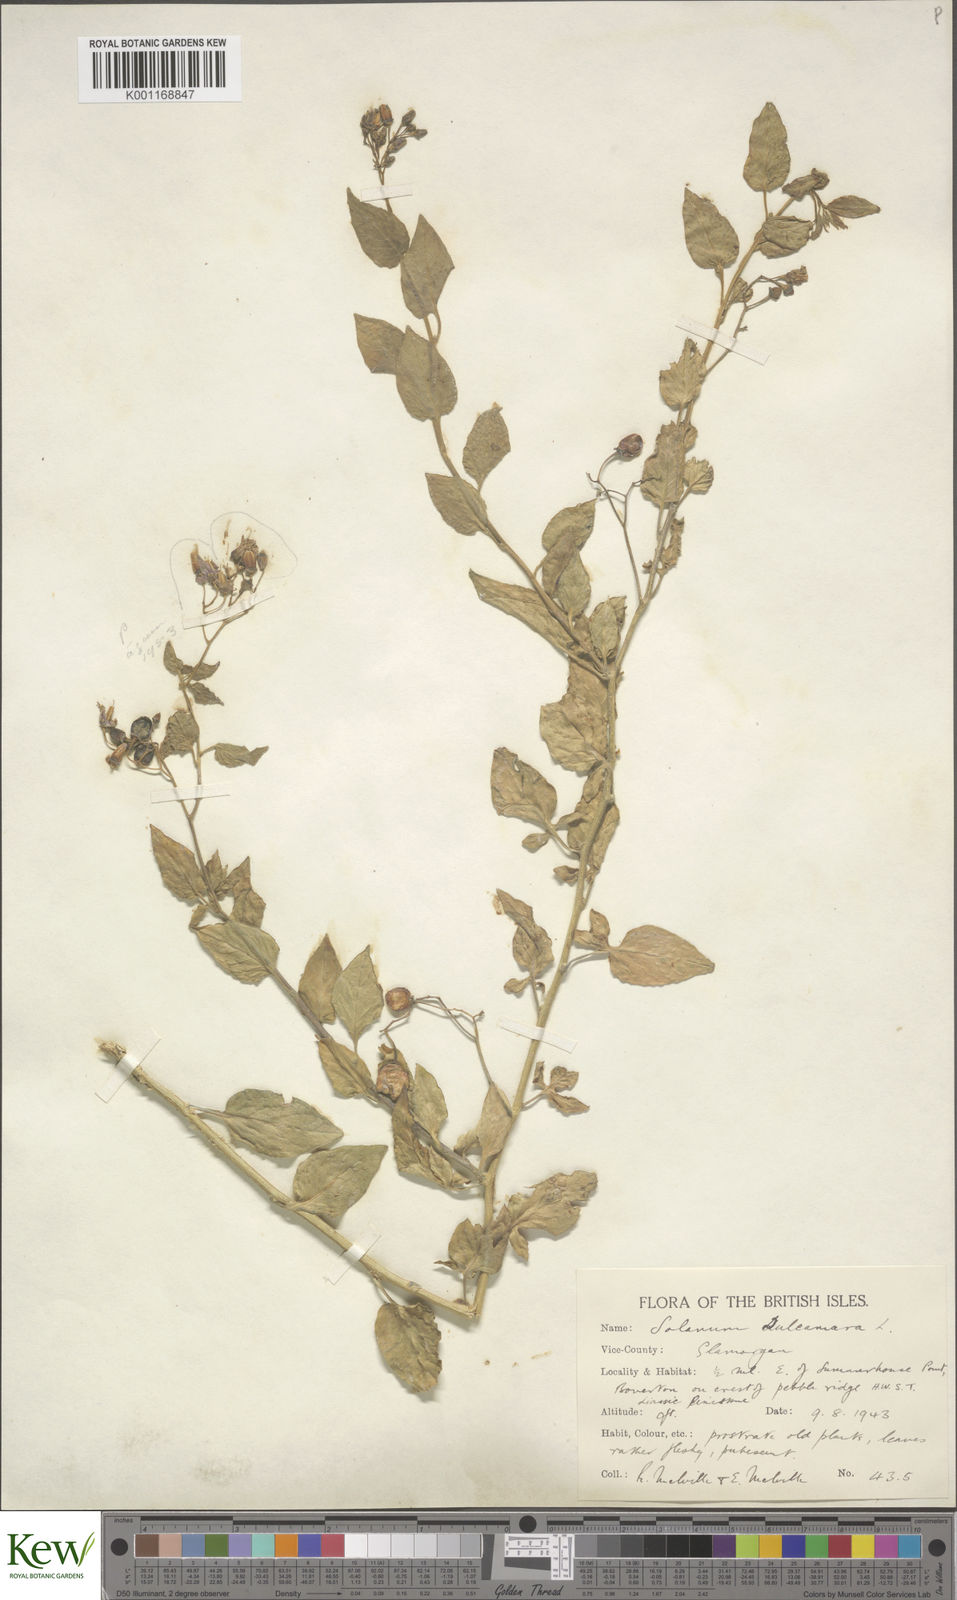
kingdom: Plantae
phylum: Tracheophyta
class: Magnoliopsida
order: Solanales
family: Solanaceae
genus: Solanum
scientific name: Solanum dulcamara
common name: Climbing nightshade
